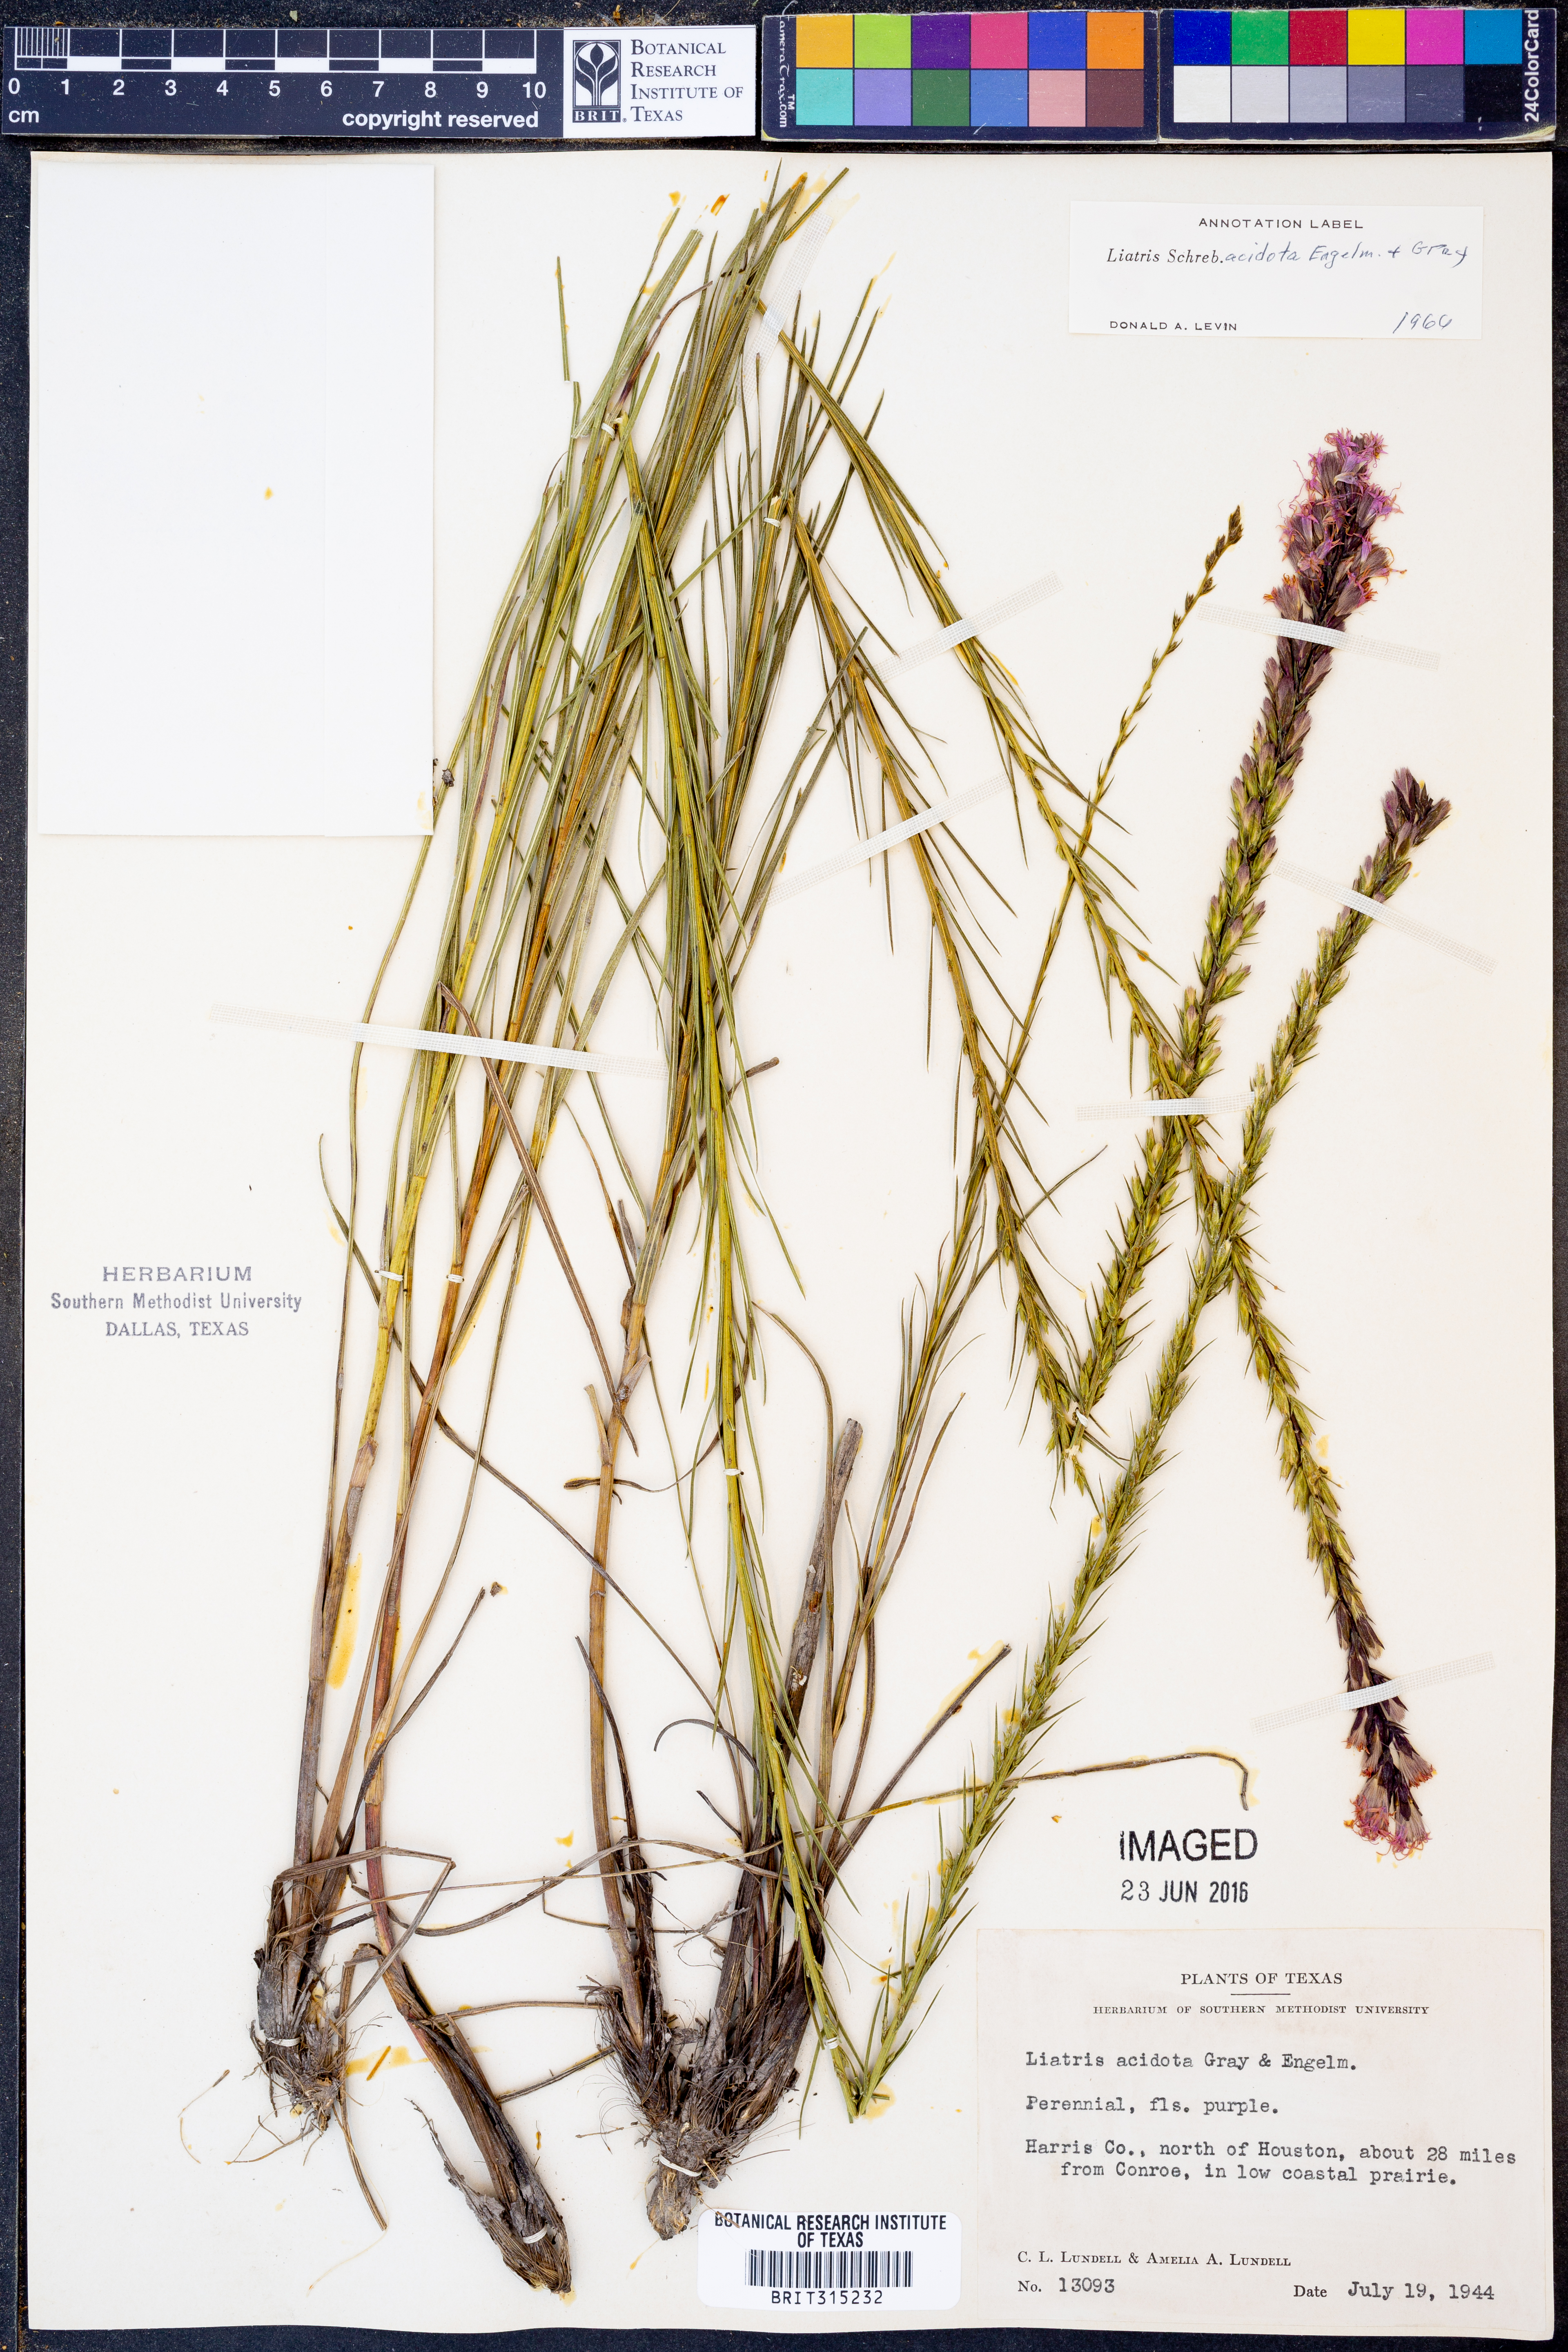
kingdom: Plantae
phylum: Tracheophyta
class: Magnoliopsida
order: Asterales
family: Asteraceae
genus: Liatris
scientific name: Liatris acidota
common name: Gulf coast gayfeather
